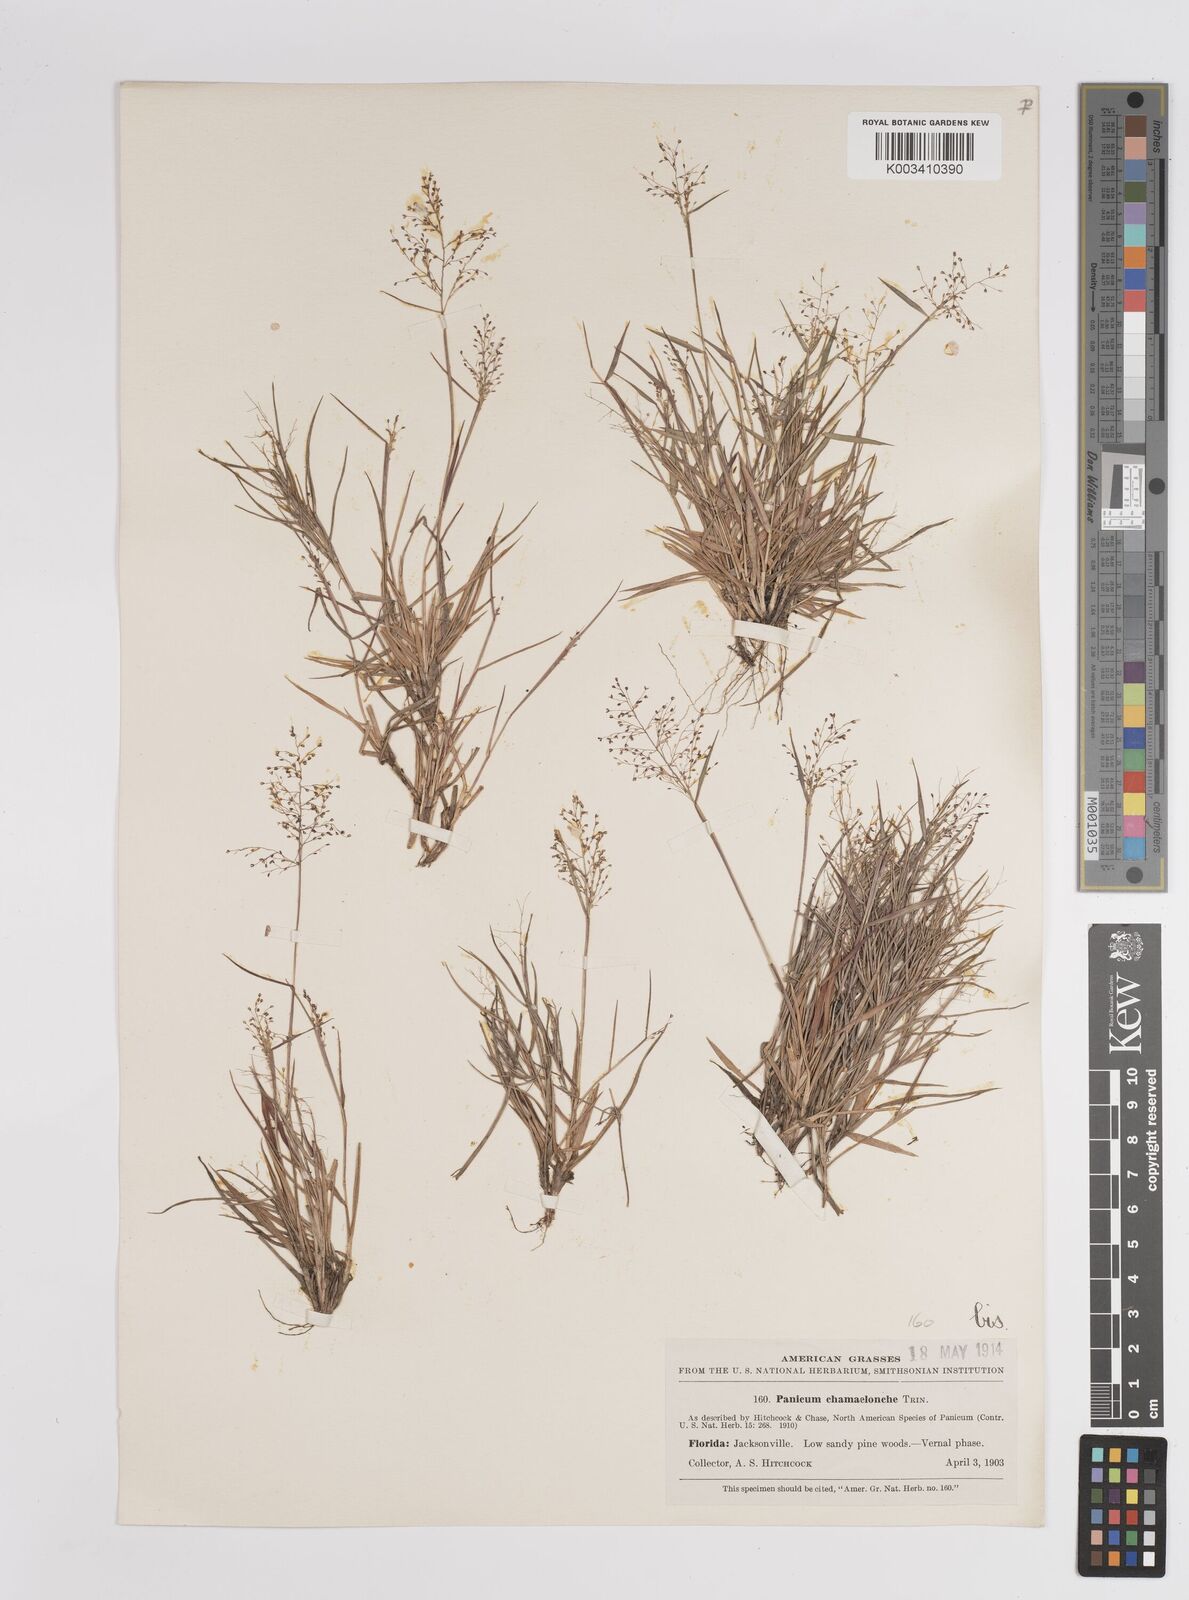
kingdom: Plantae
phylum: Tracheophyta
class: Liliopsida
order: Poales
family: Poaceae
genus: Dichanthelium
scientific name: Dichanthelium chamaelonche
